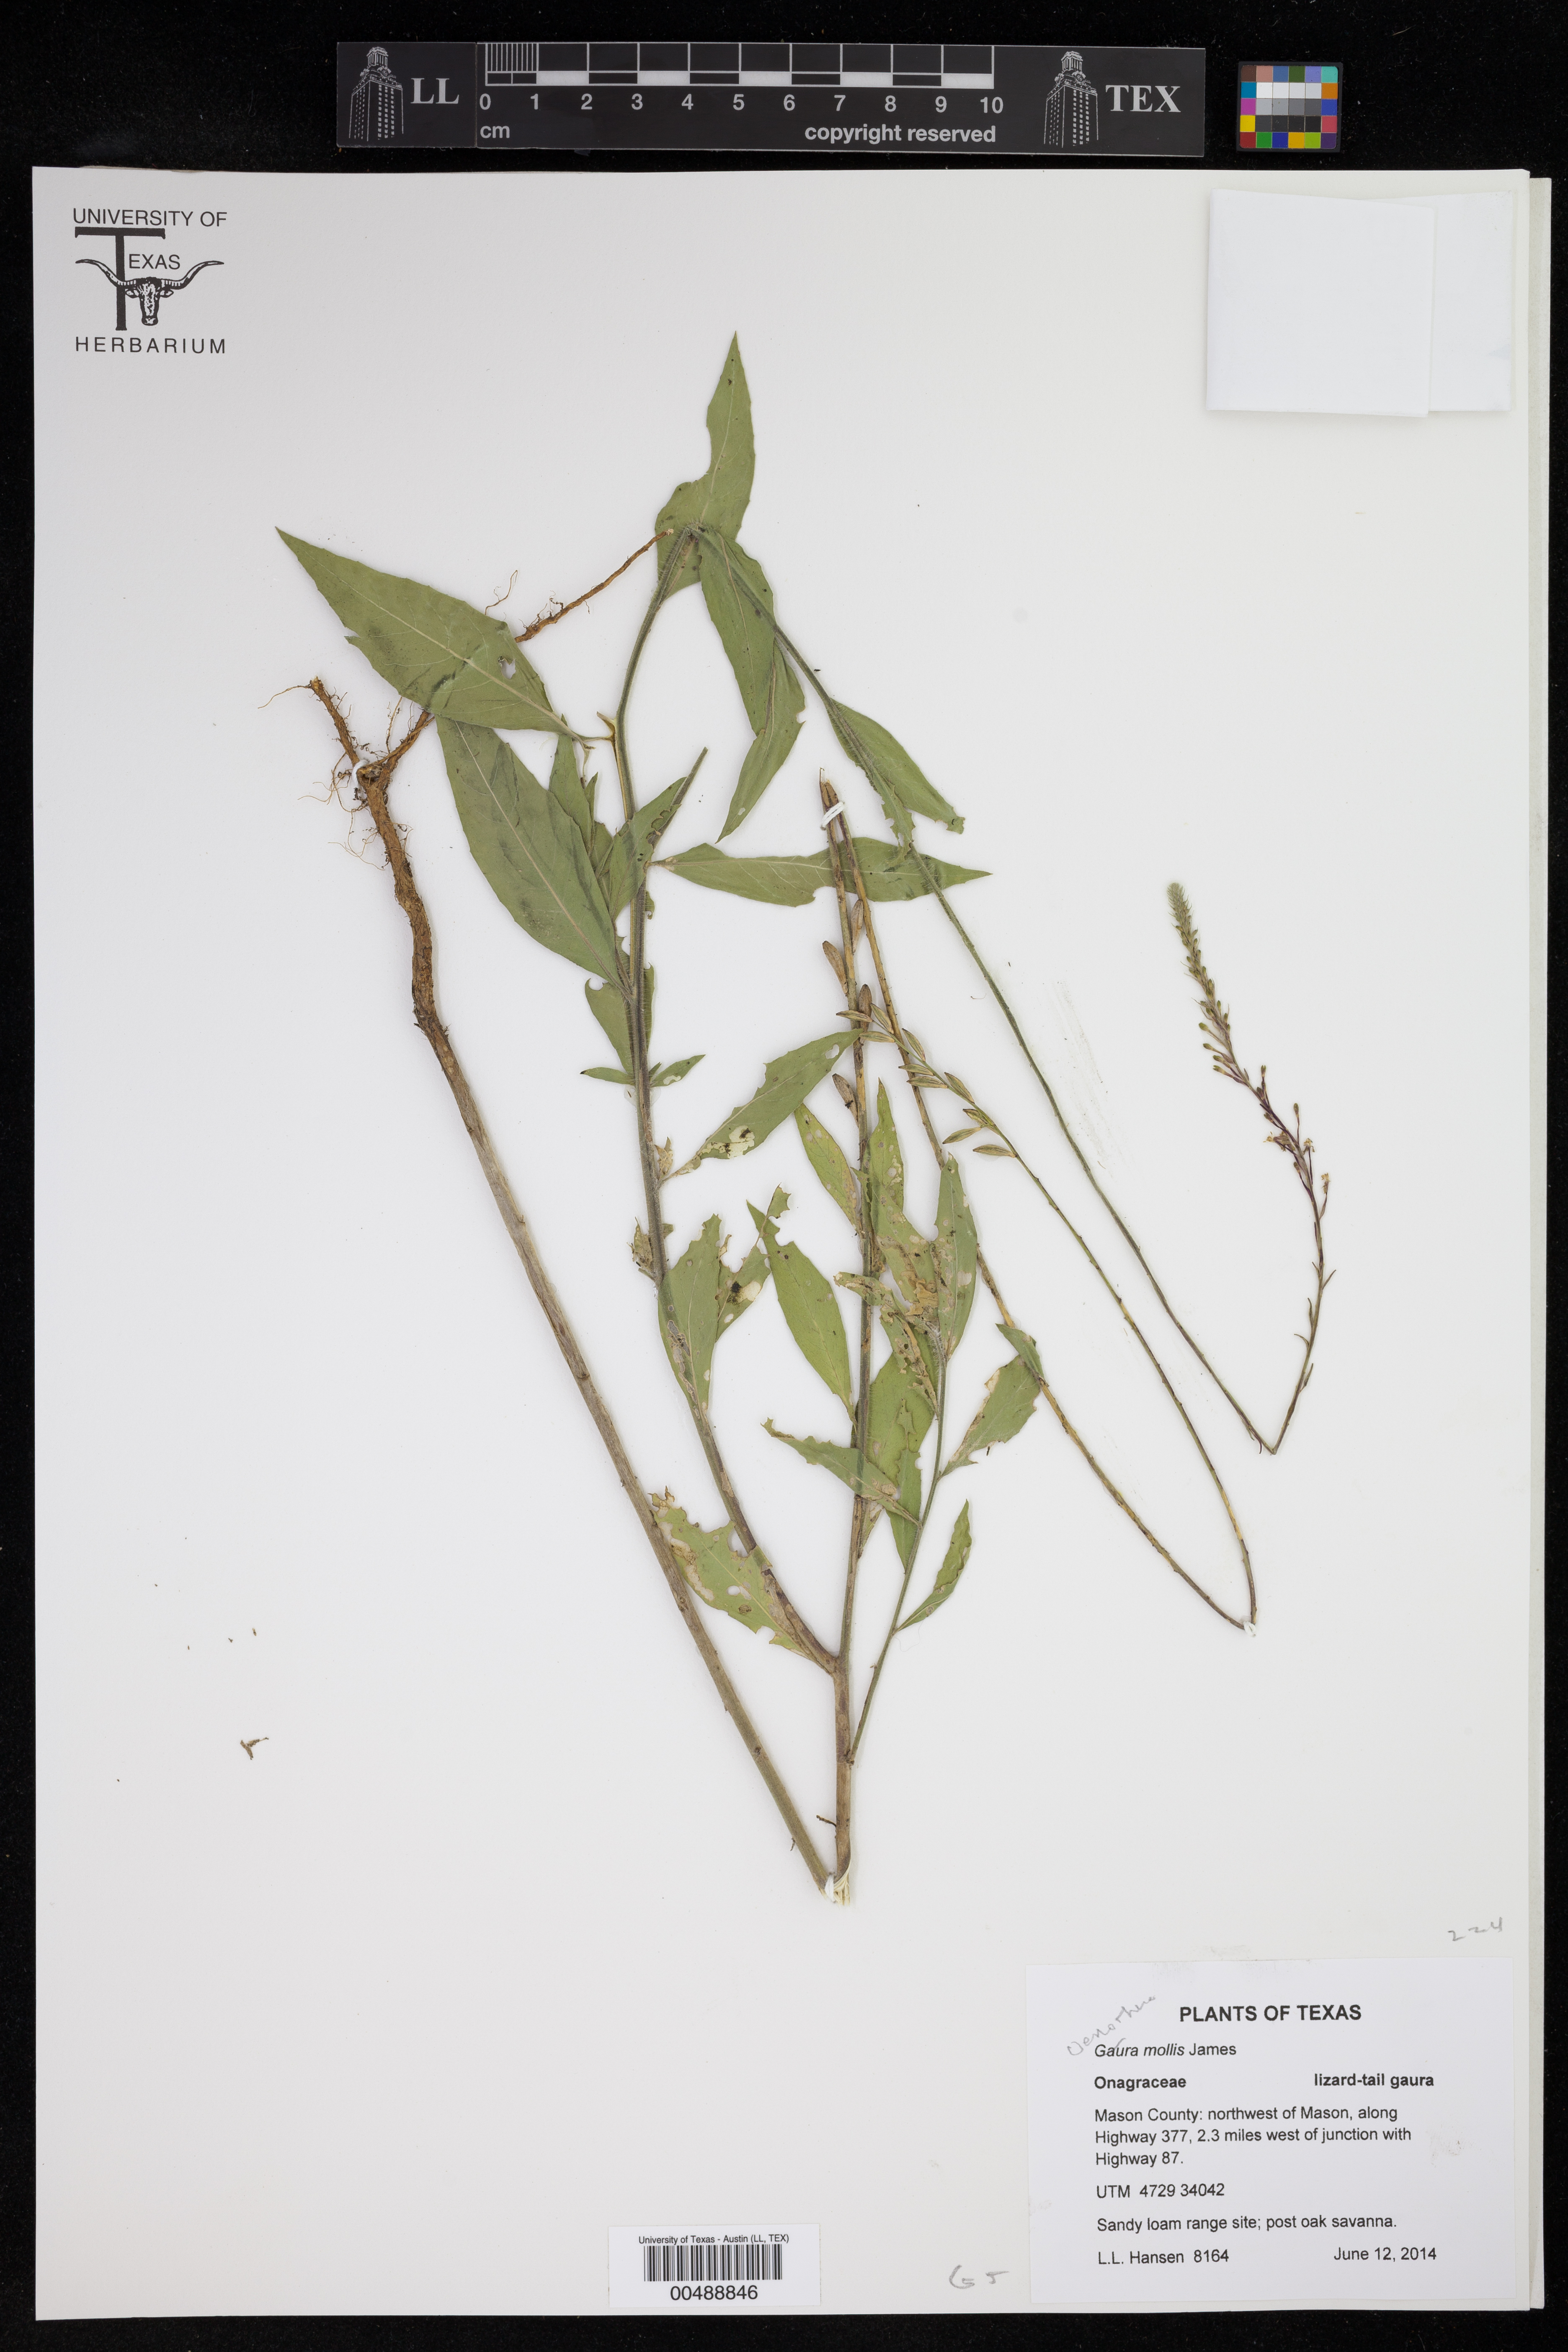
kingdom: Plantae
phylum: Tracheophyta
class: Magnoliopsida
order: Myrtales
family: Onagraceae
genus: Oenothera
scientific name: Oenothera mollissima
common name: Argentine evening primrose
